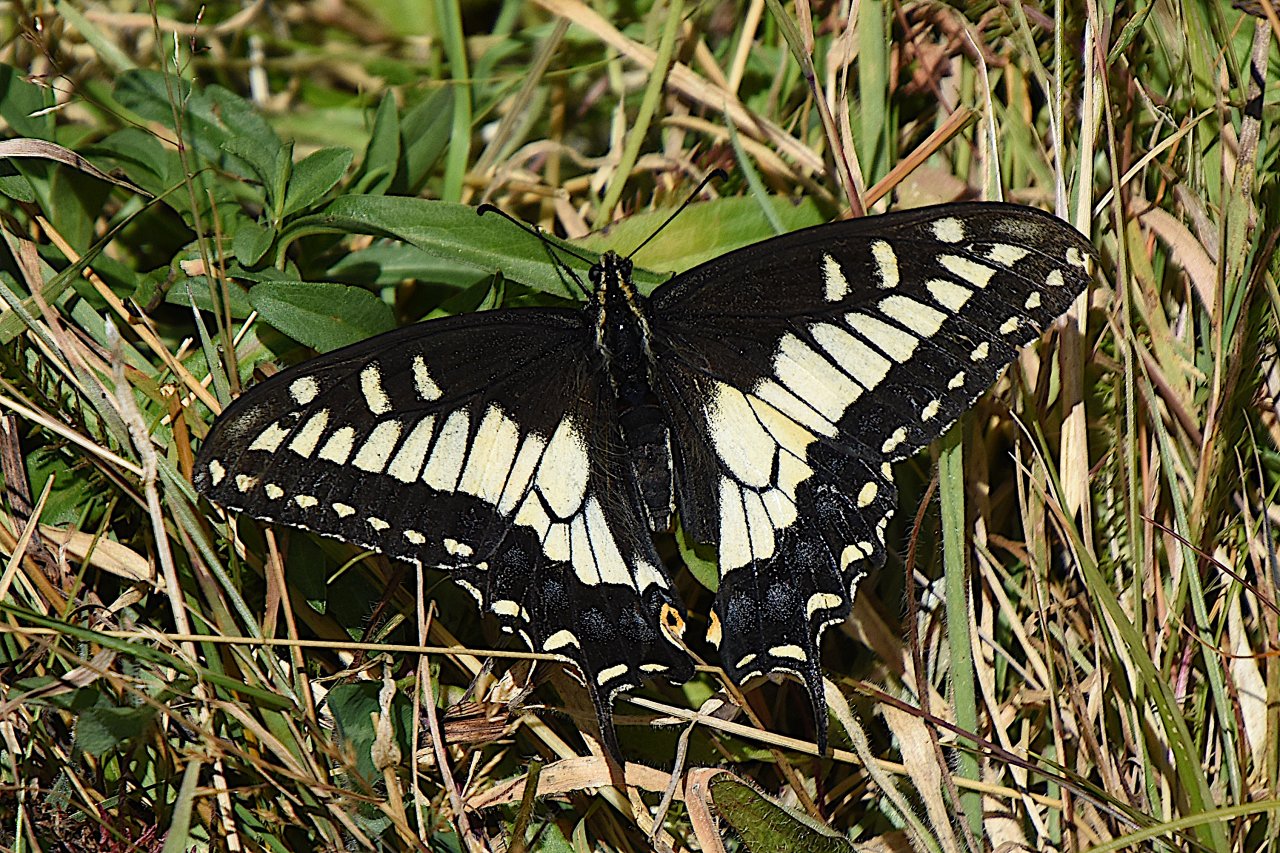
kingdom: Animalia
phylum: Arthropoda
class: Insecta
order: Lepidoptera
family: Papilionidae
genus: Papilio
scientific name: Papilio zelicaon
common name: Anise Swallowtail
